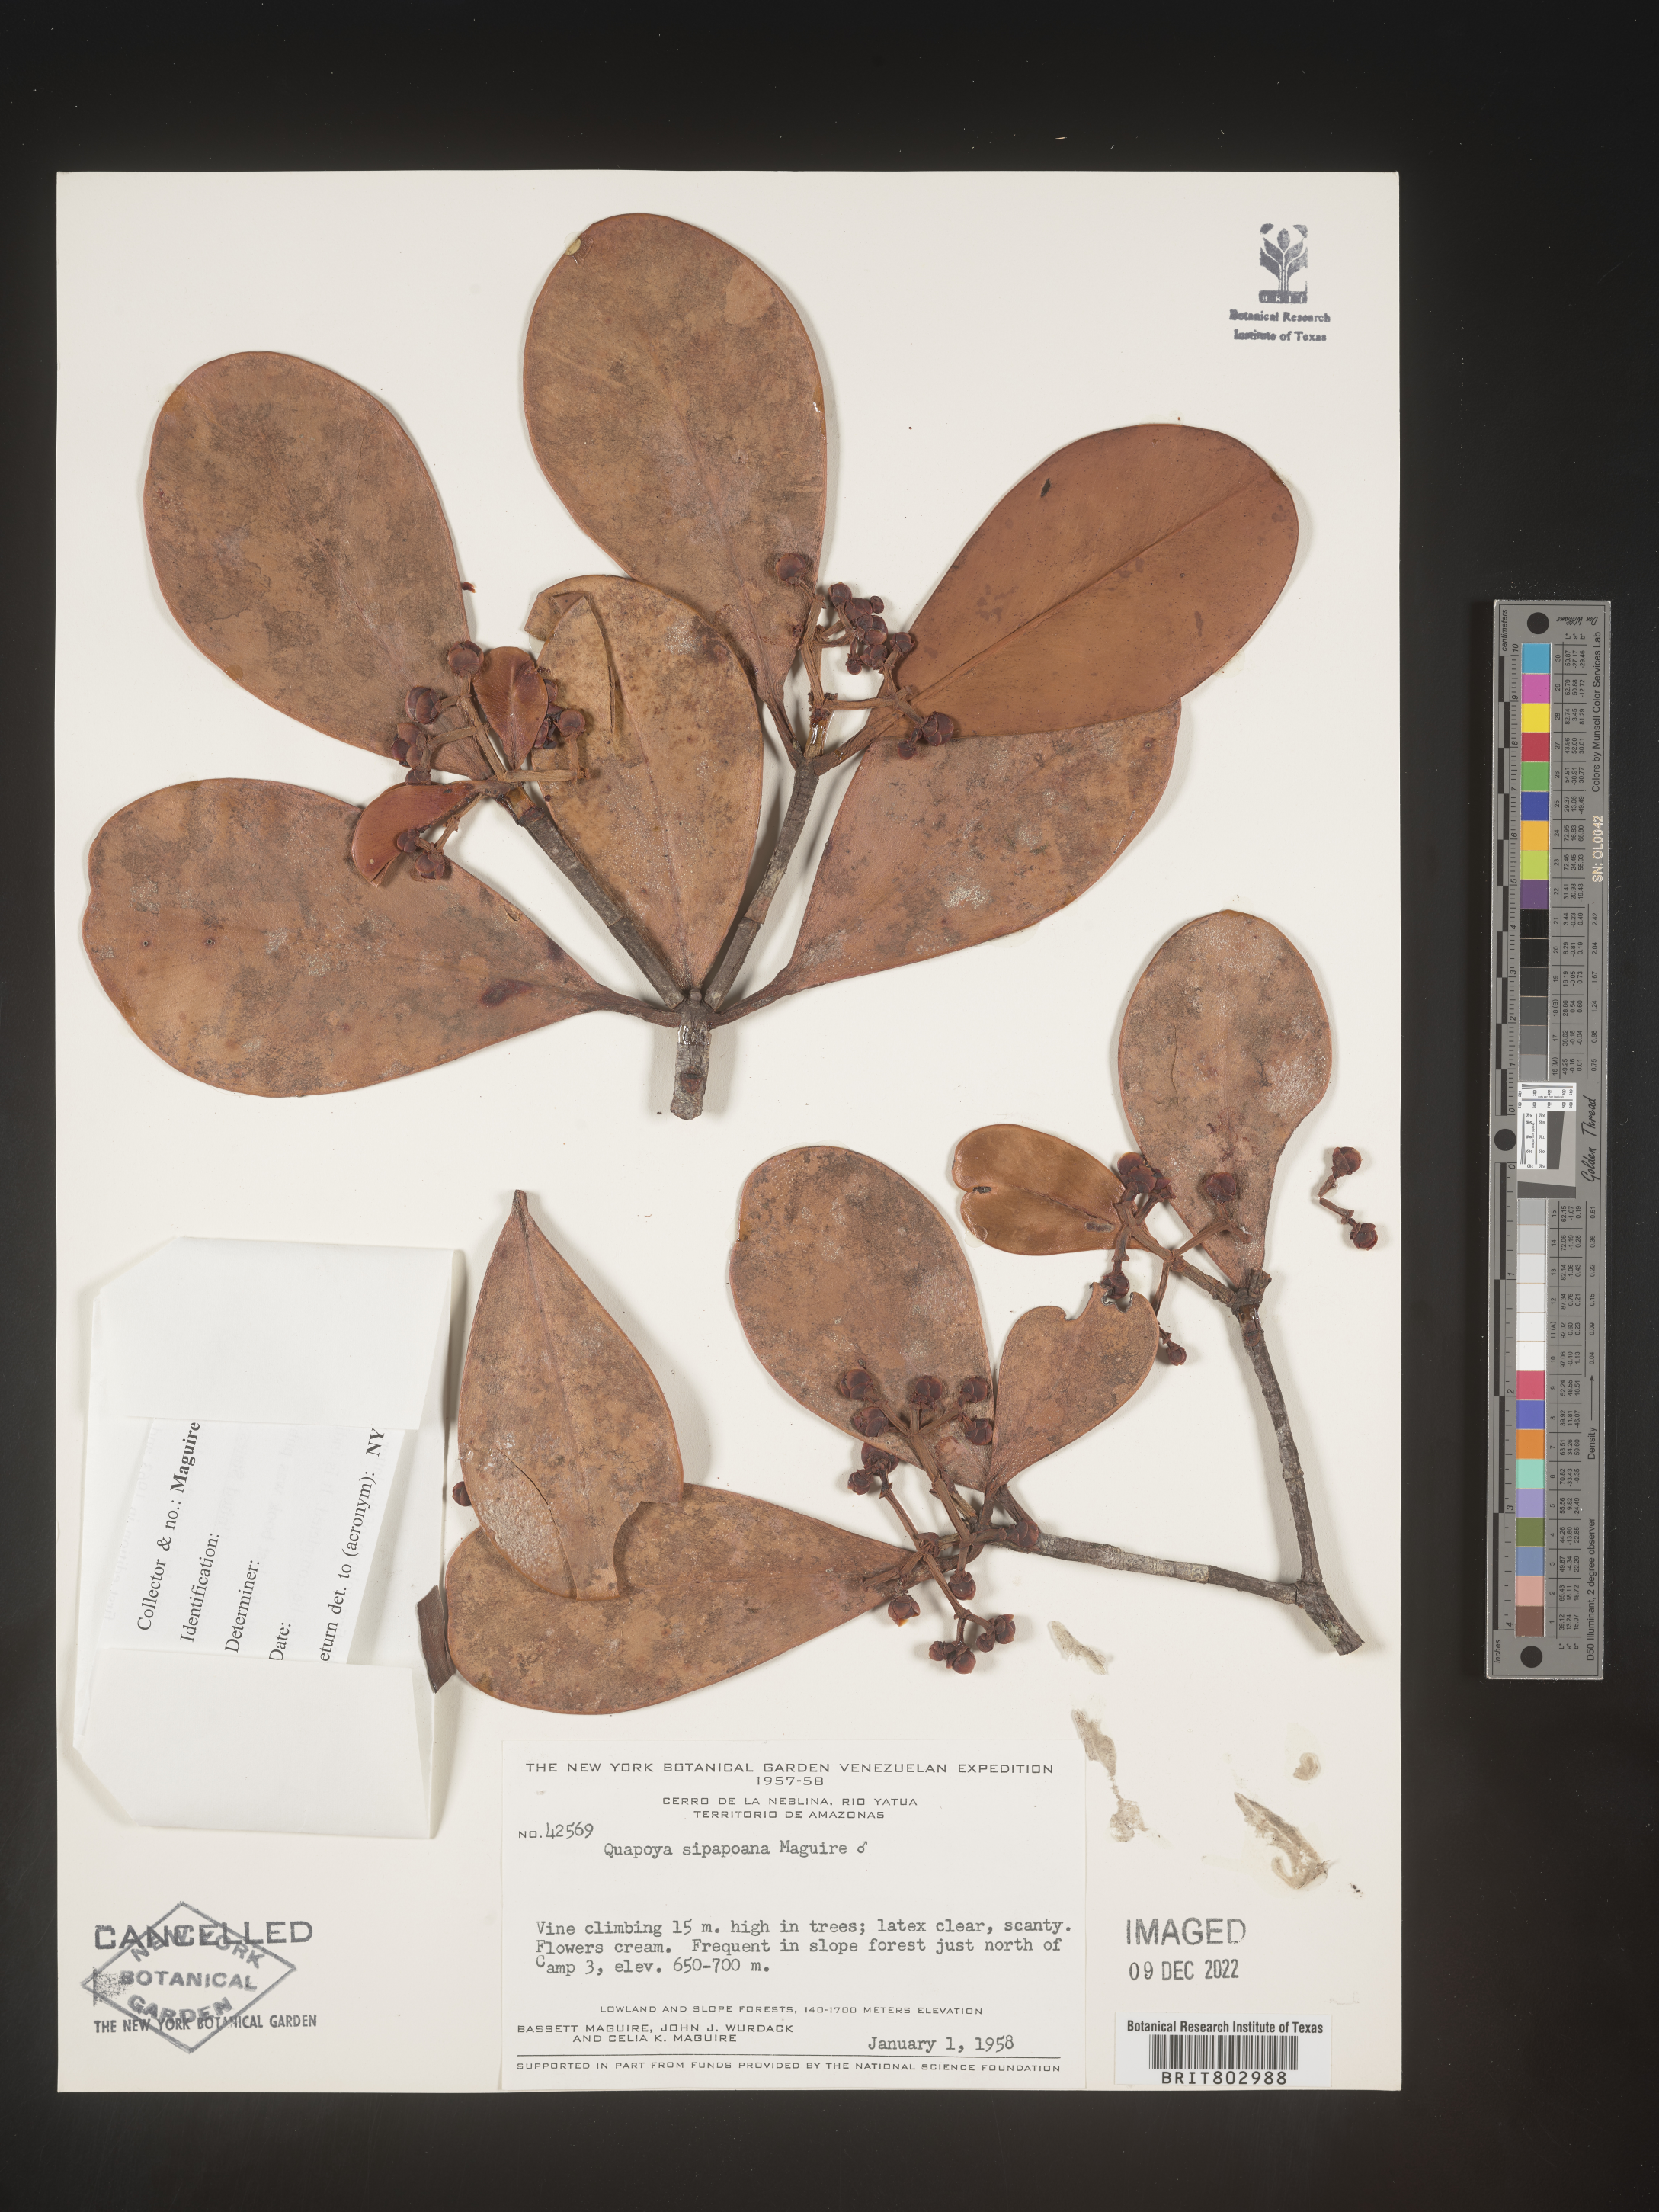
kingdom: Plantae
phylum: Tracheophyta
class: Magnoliopsida
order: Malpighiales
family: Clusiaceae
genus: Quapoya
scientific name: Quapoya
